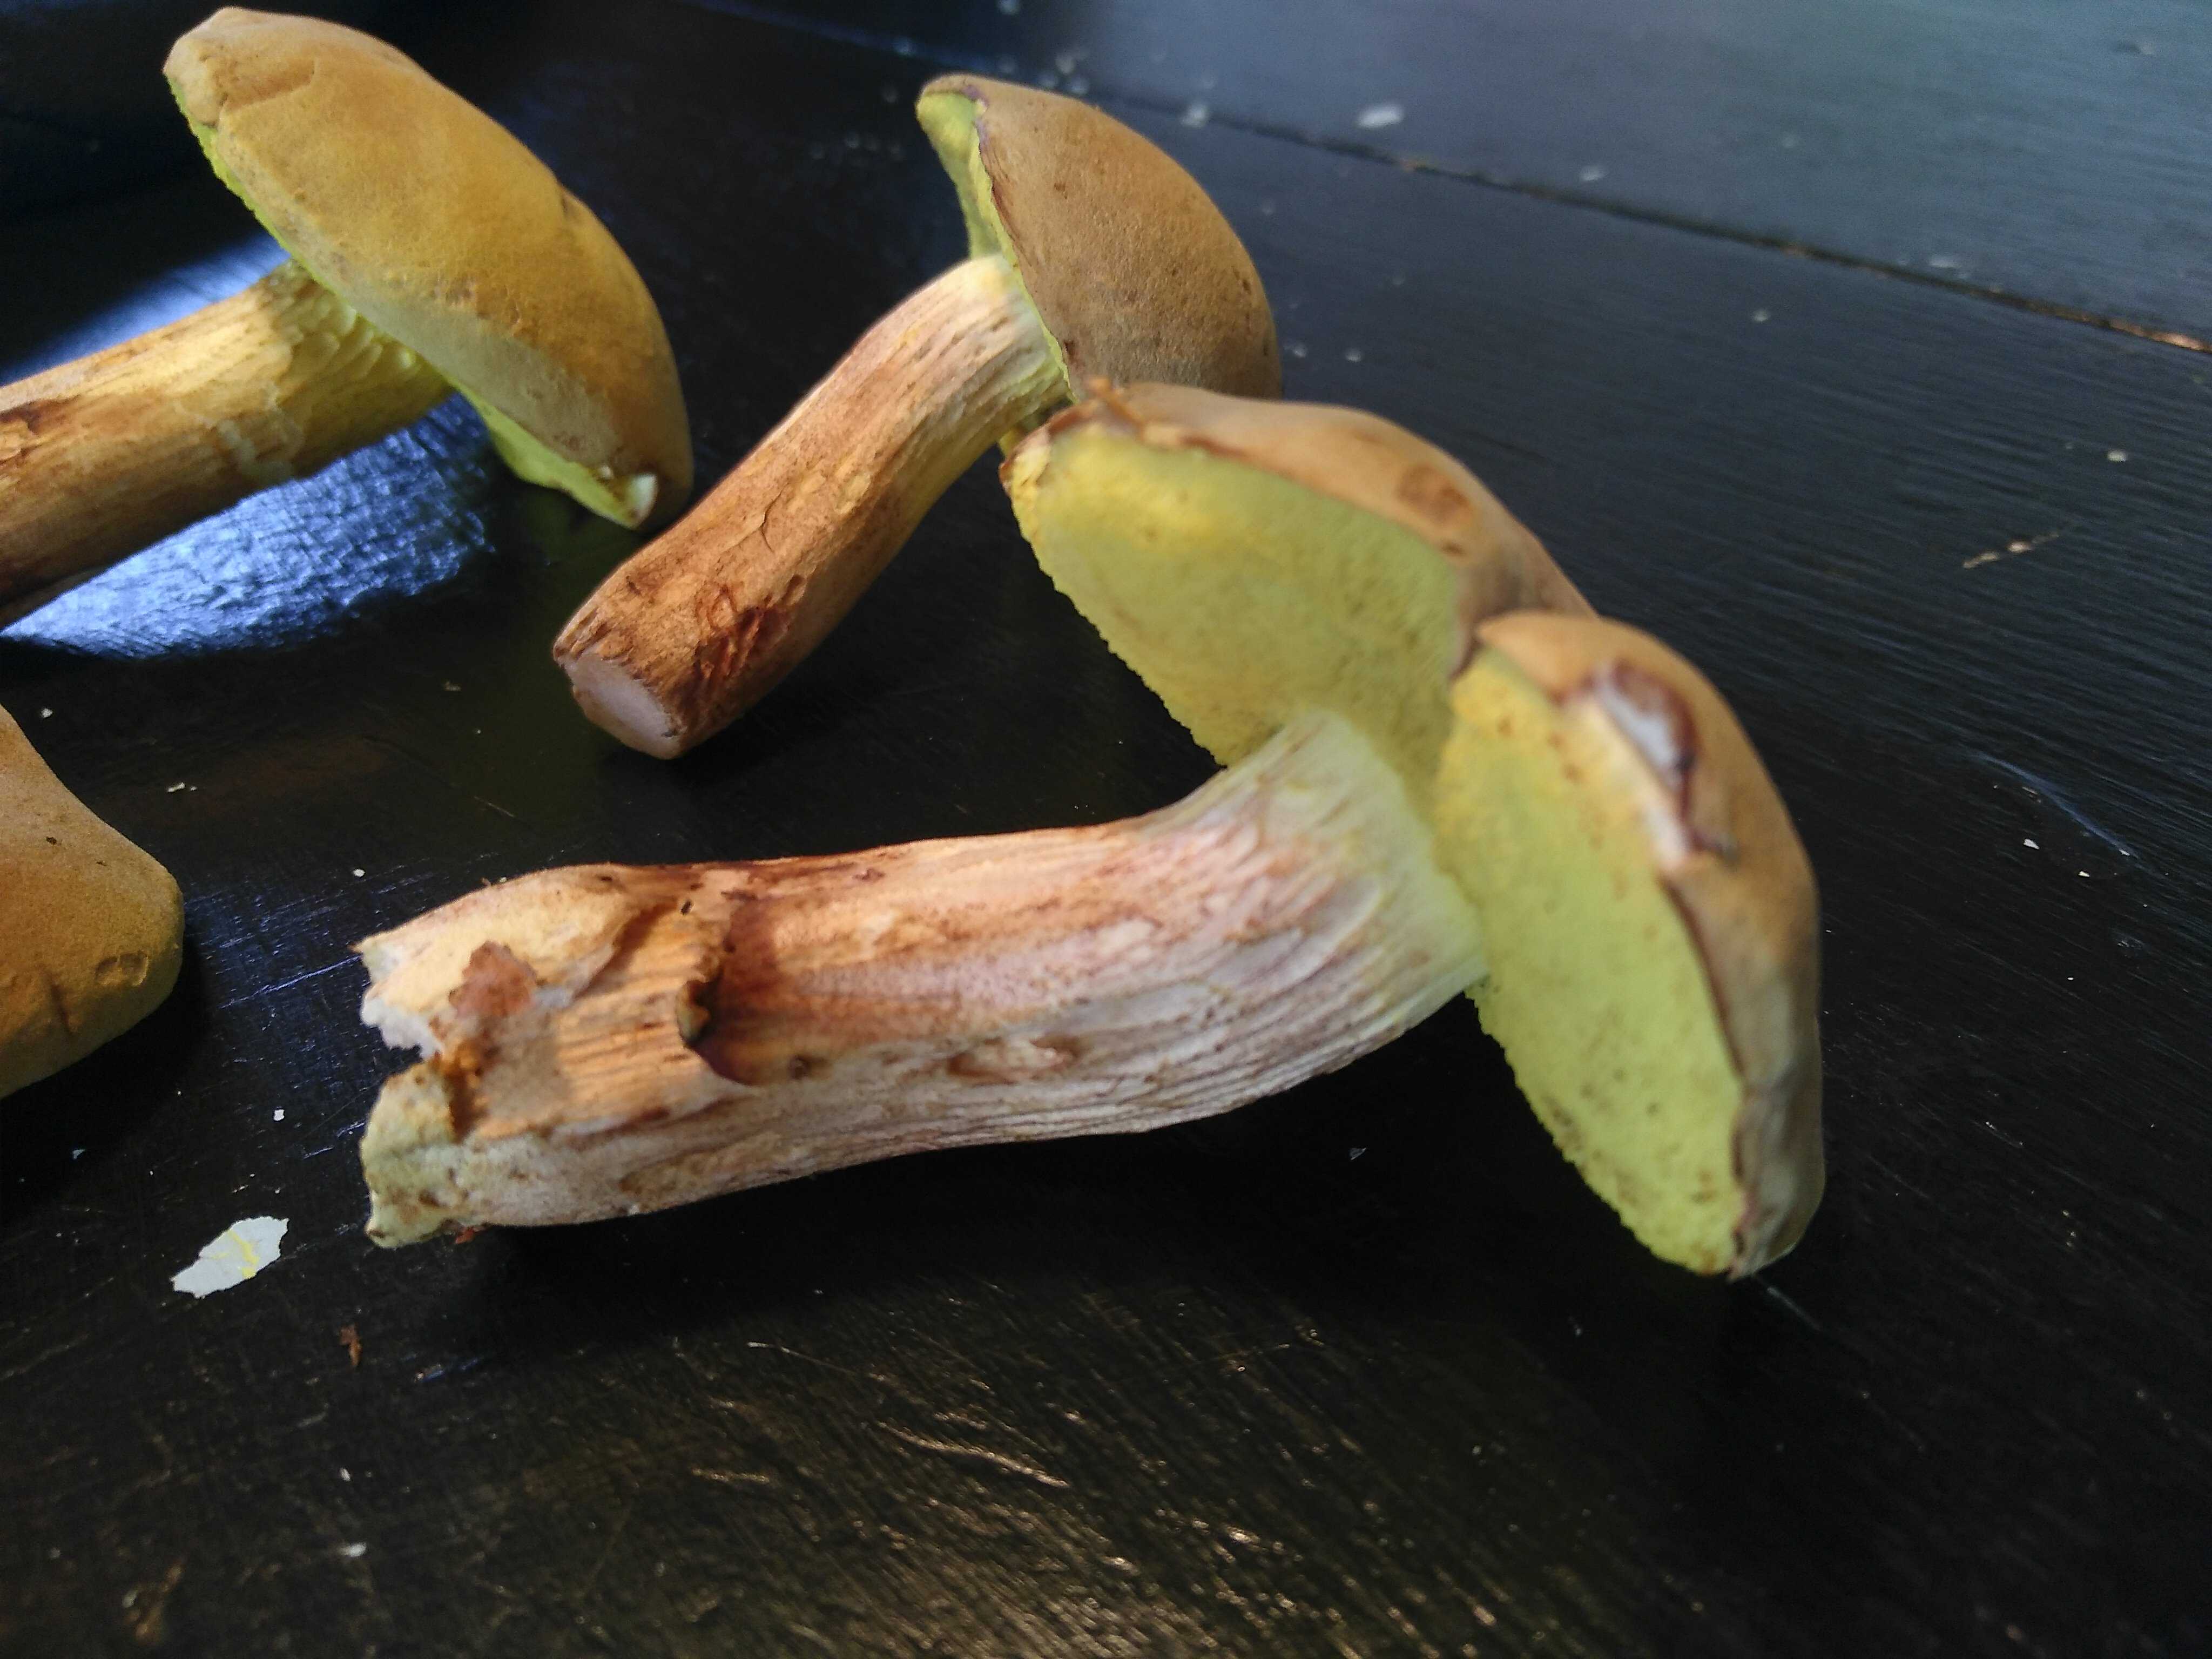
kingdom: Fungi
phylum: Basidiomycota
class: Agaricomycetes
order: Boletales
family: Boletaceae
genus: Xerocomus
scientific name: Xerocomus
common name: filtrørhat
